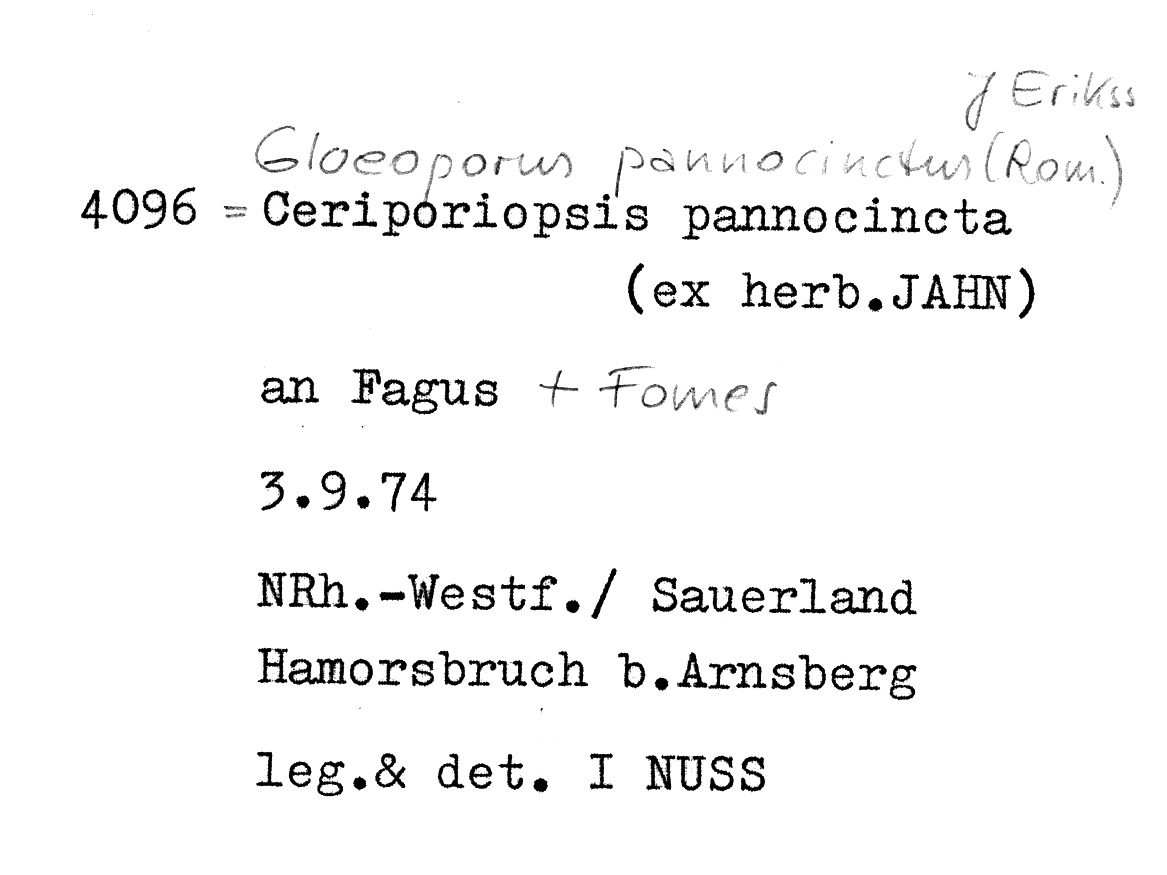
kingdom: Fungi
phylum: Basidiomycota
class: Agaricomycetes
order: Polyporales
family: Irpicaceae
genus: Gloeoporus
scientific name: Gloeoporus pannocinctus
